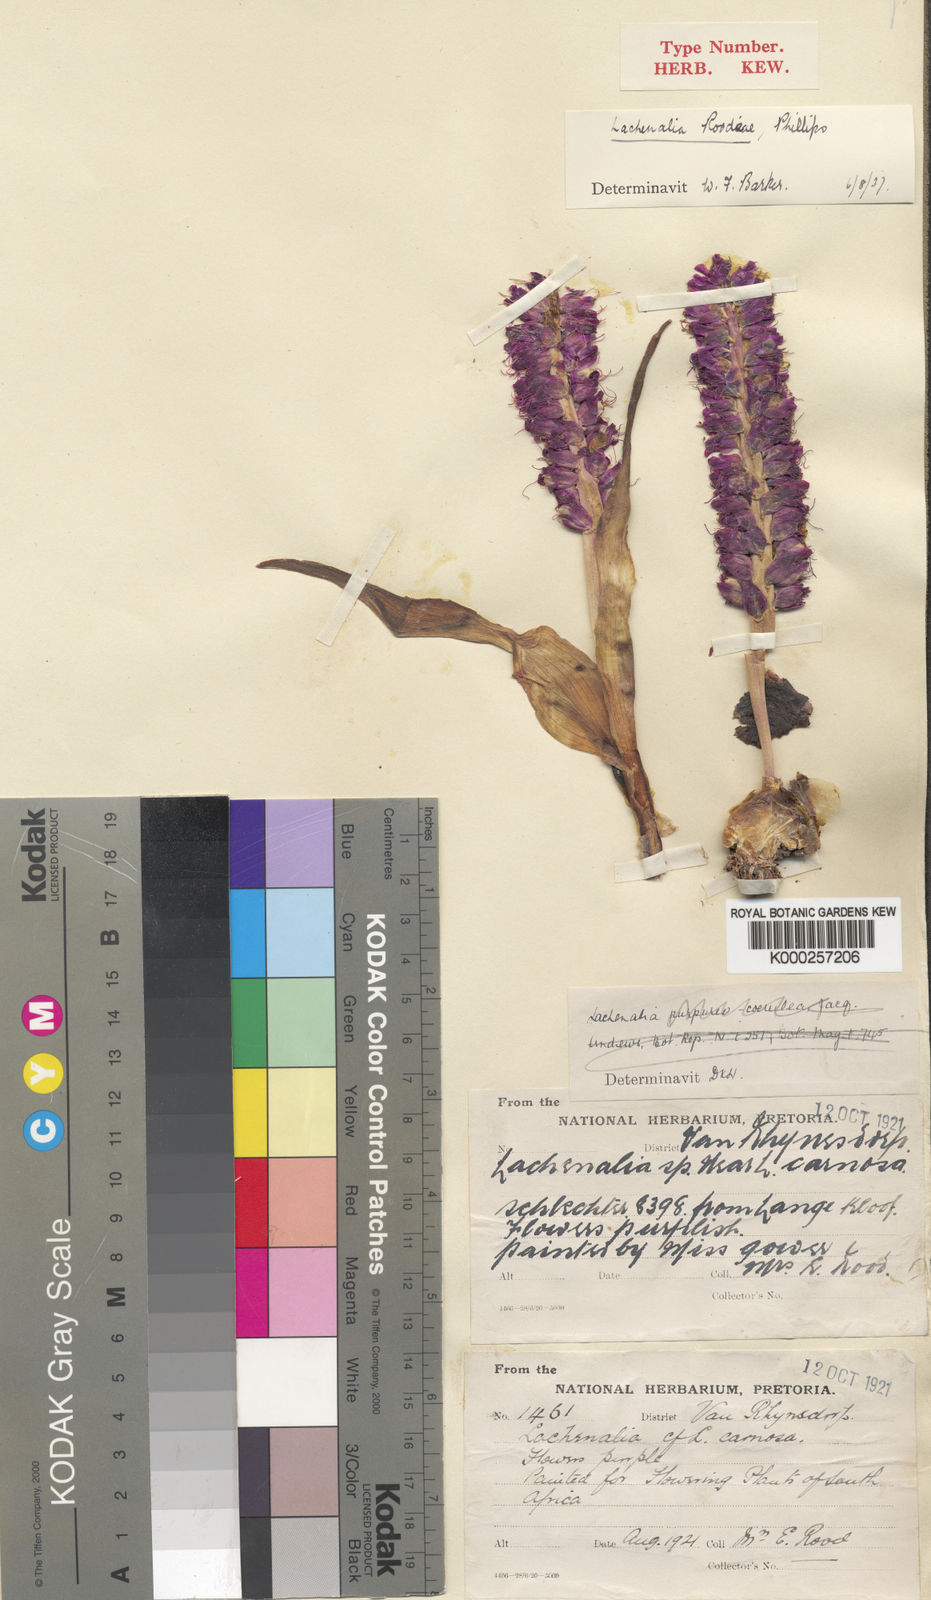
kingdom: Plantae
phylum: Tracheophyta
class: Liliopsida
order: Asparagales
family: Asparagaceae
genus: Lachenalia
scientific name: Lachenalia splendida
